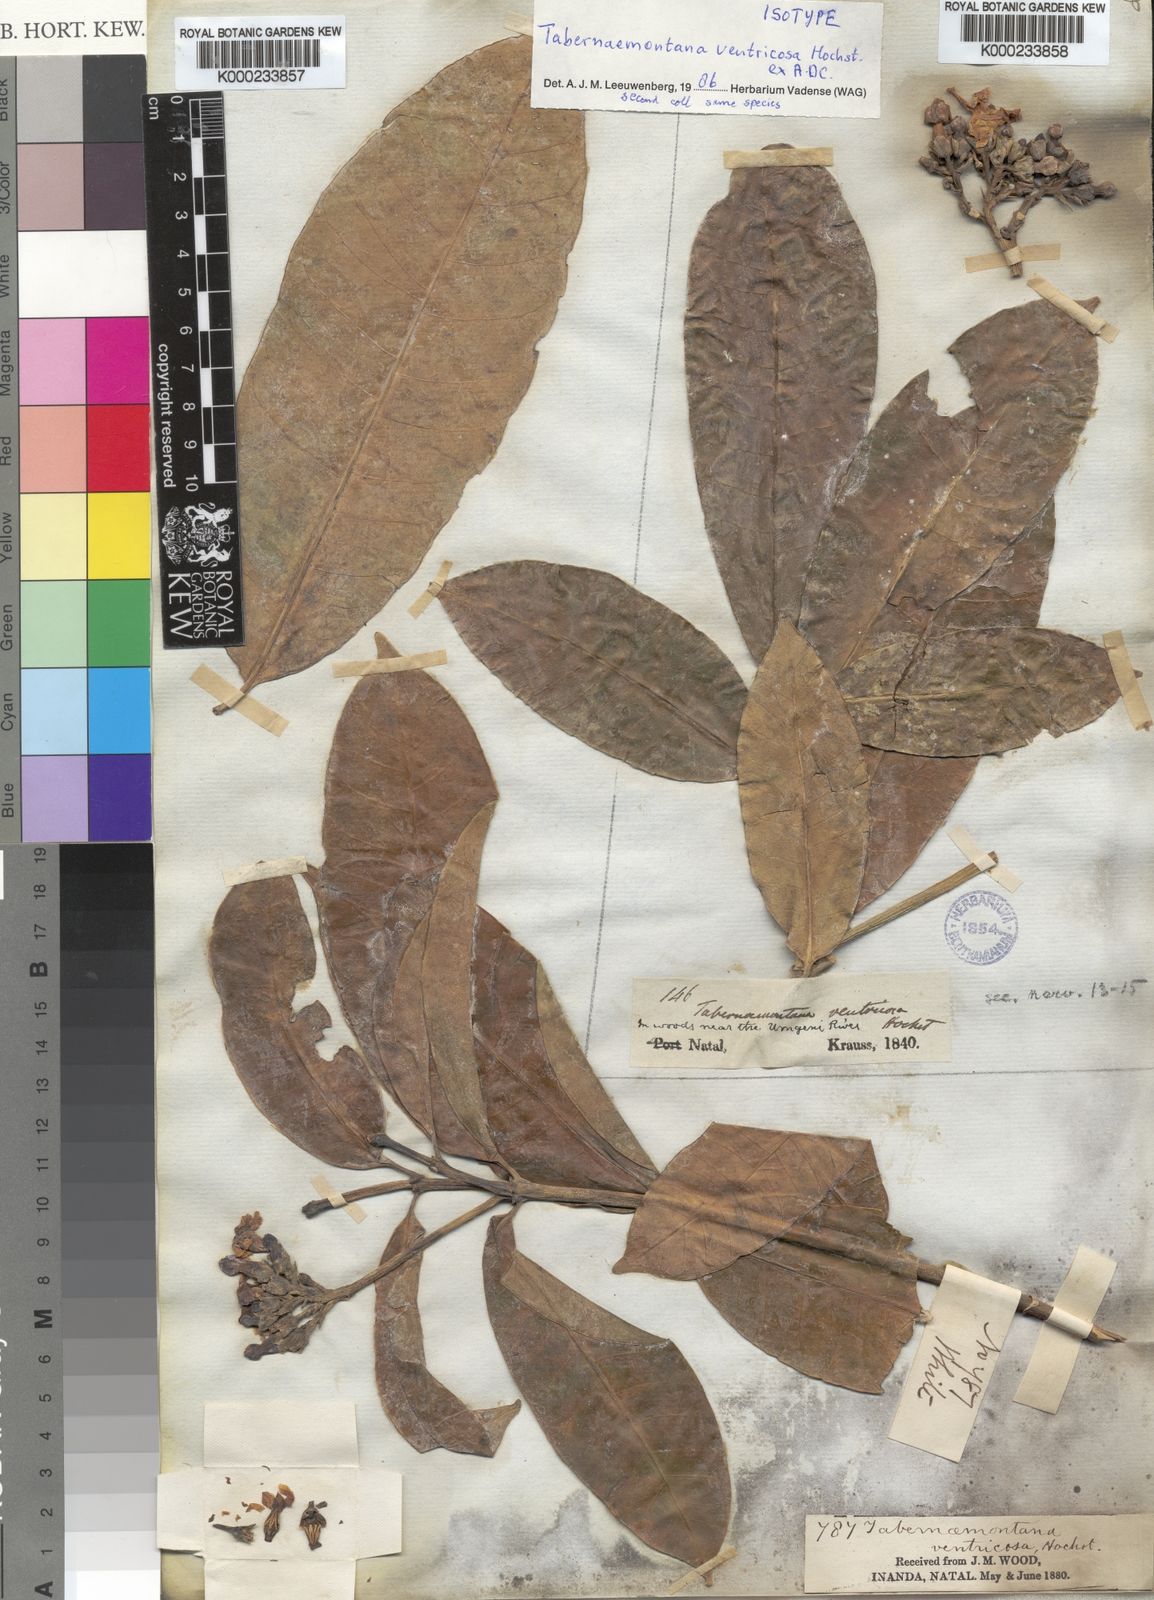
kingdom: Plantae
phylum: Tracheophyta
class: Magnoliopsida
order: Gentianales
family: Apocynaceae
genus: Tabernaemontana
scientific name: Tabernaemontana ventricosa
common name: Forest toad-tree
